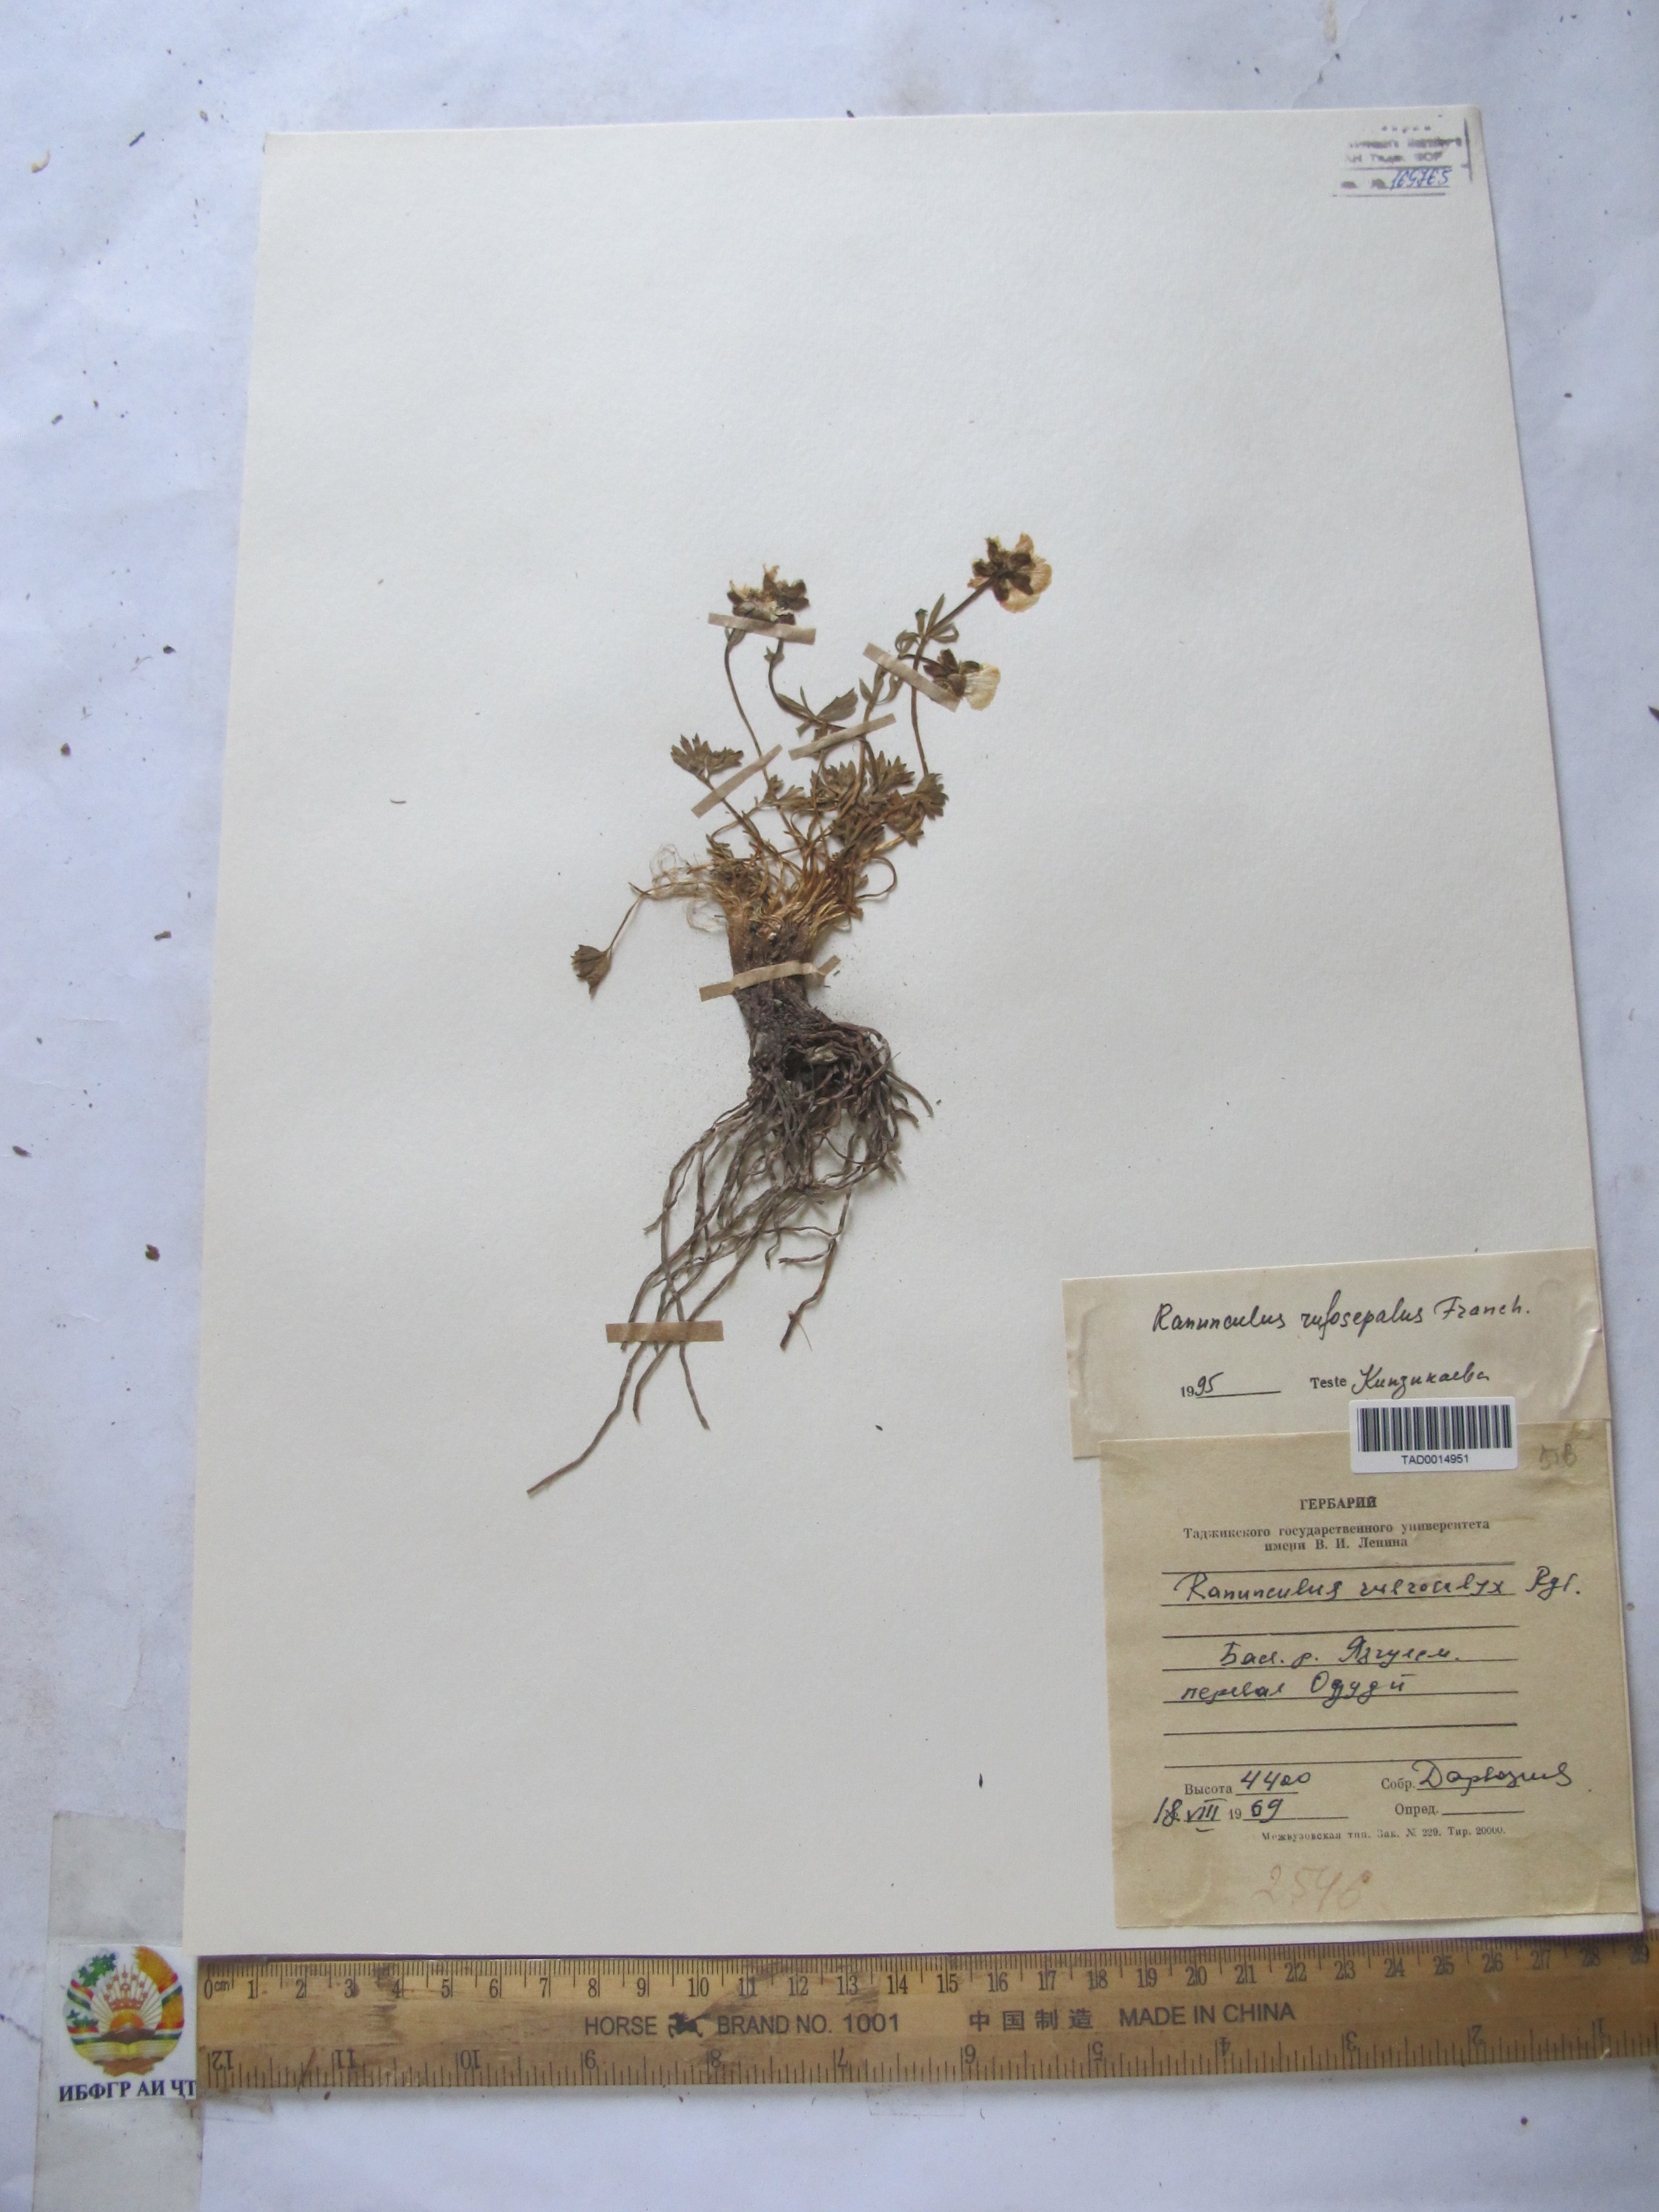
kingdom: Plantae
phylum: Tracheophyta
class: Magnoliopsida
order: Ranunculales
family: Ranunculaceae
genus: Ranunculus
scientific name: Ranunculus rubrocalyx
